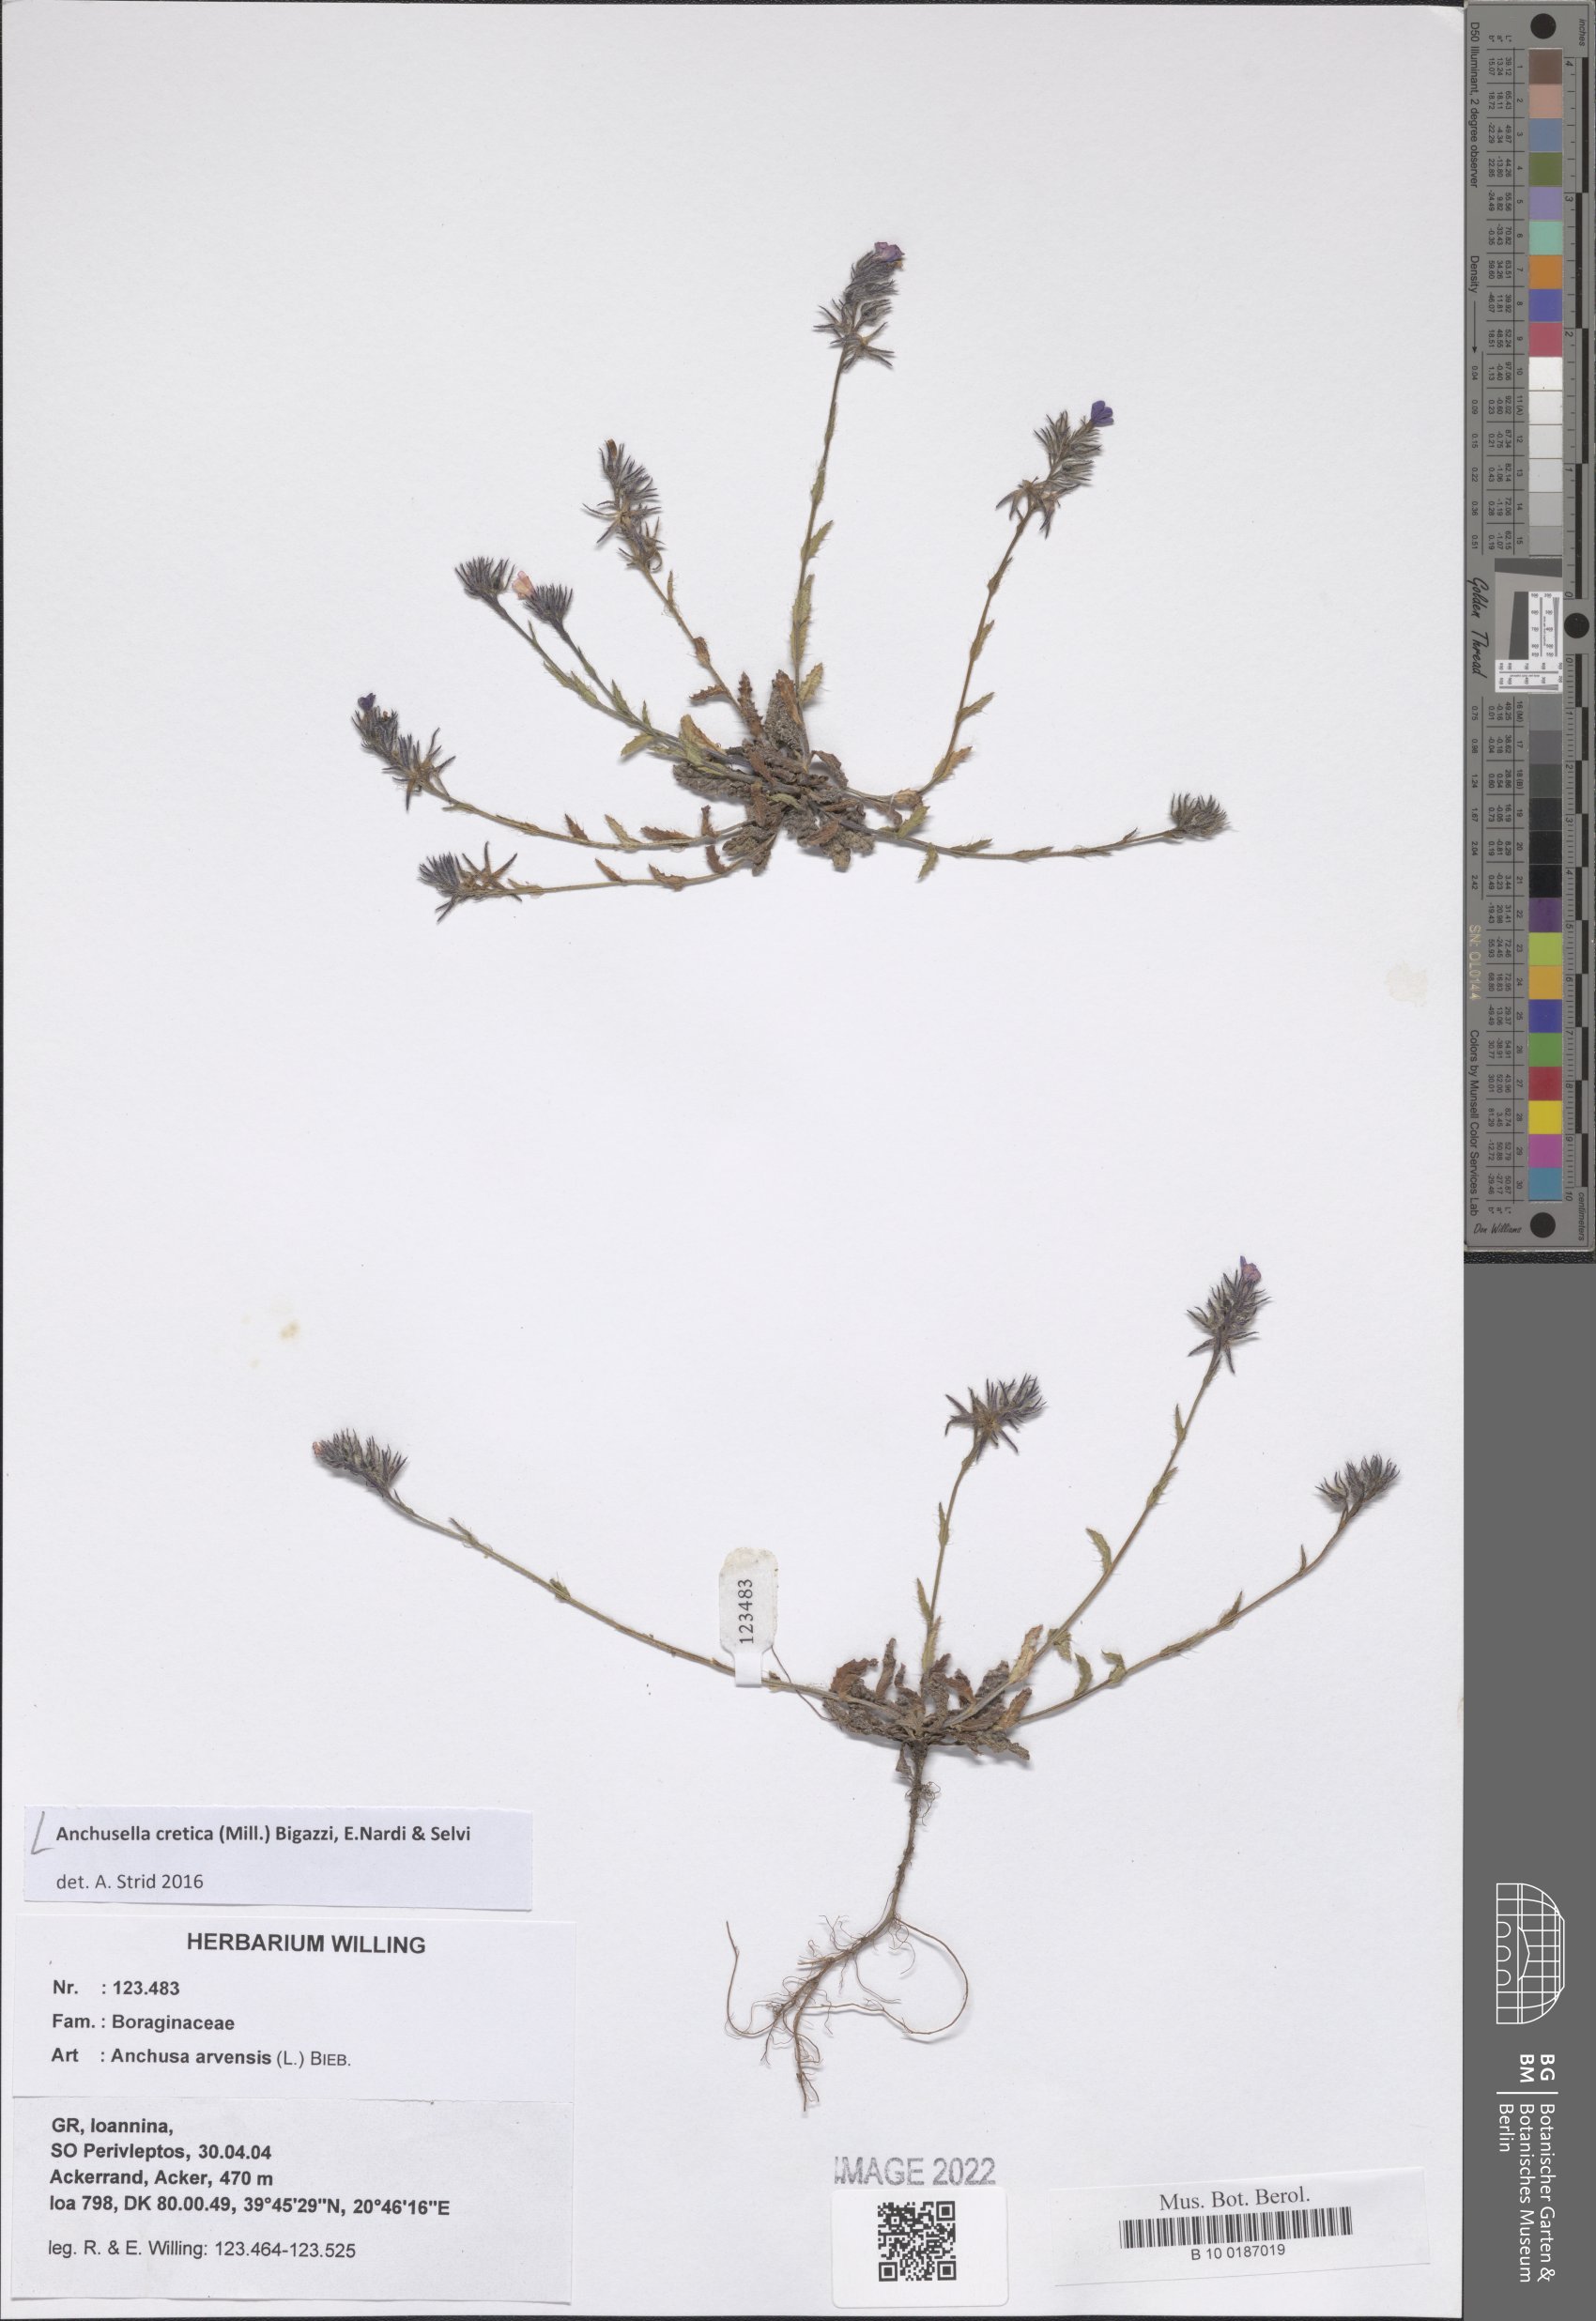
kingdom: Plantae
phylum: Tracheophyta
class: Magnoliopsida
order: Boraginales
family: Boraginaceae
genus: Anchusella
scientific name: Anchusella cretica
